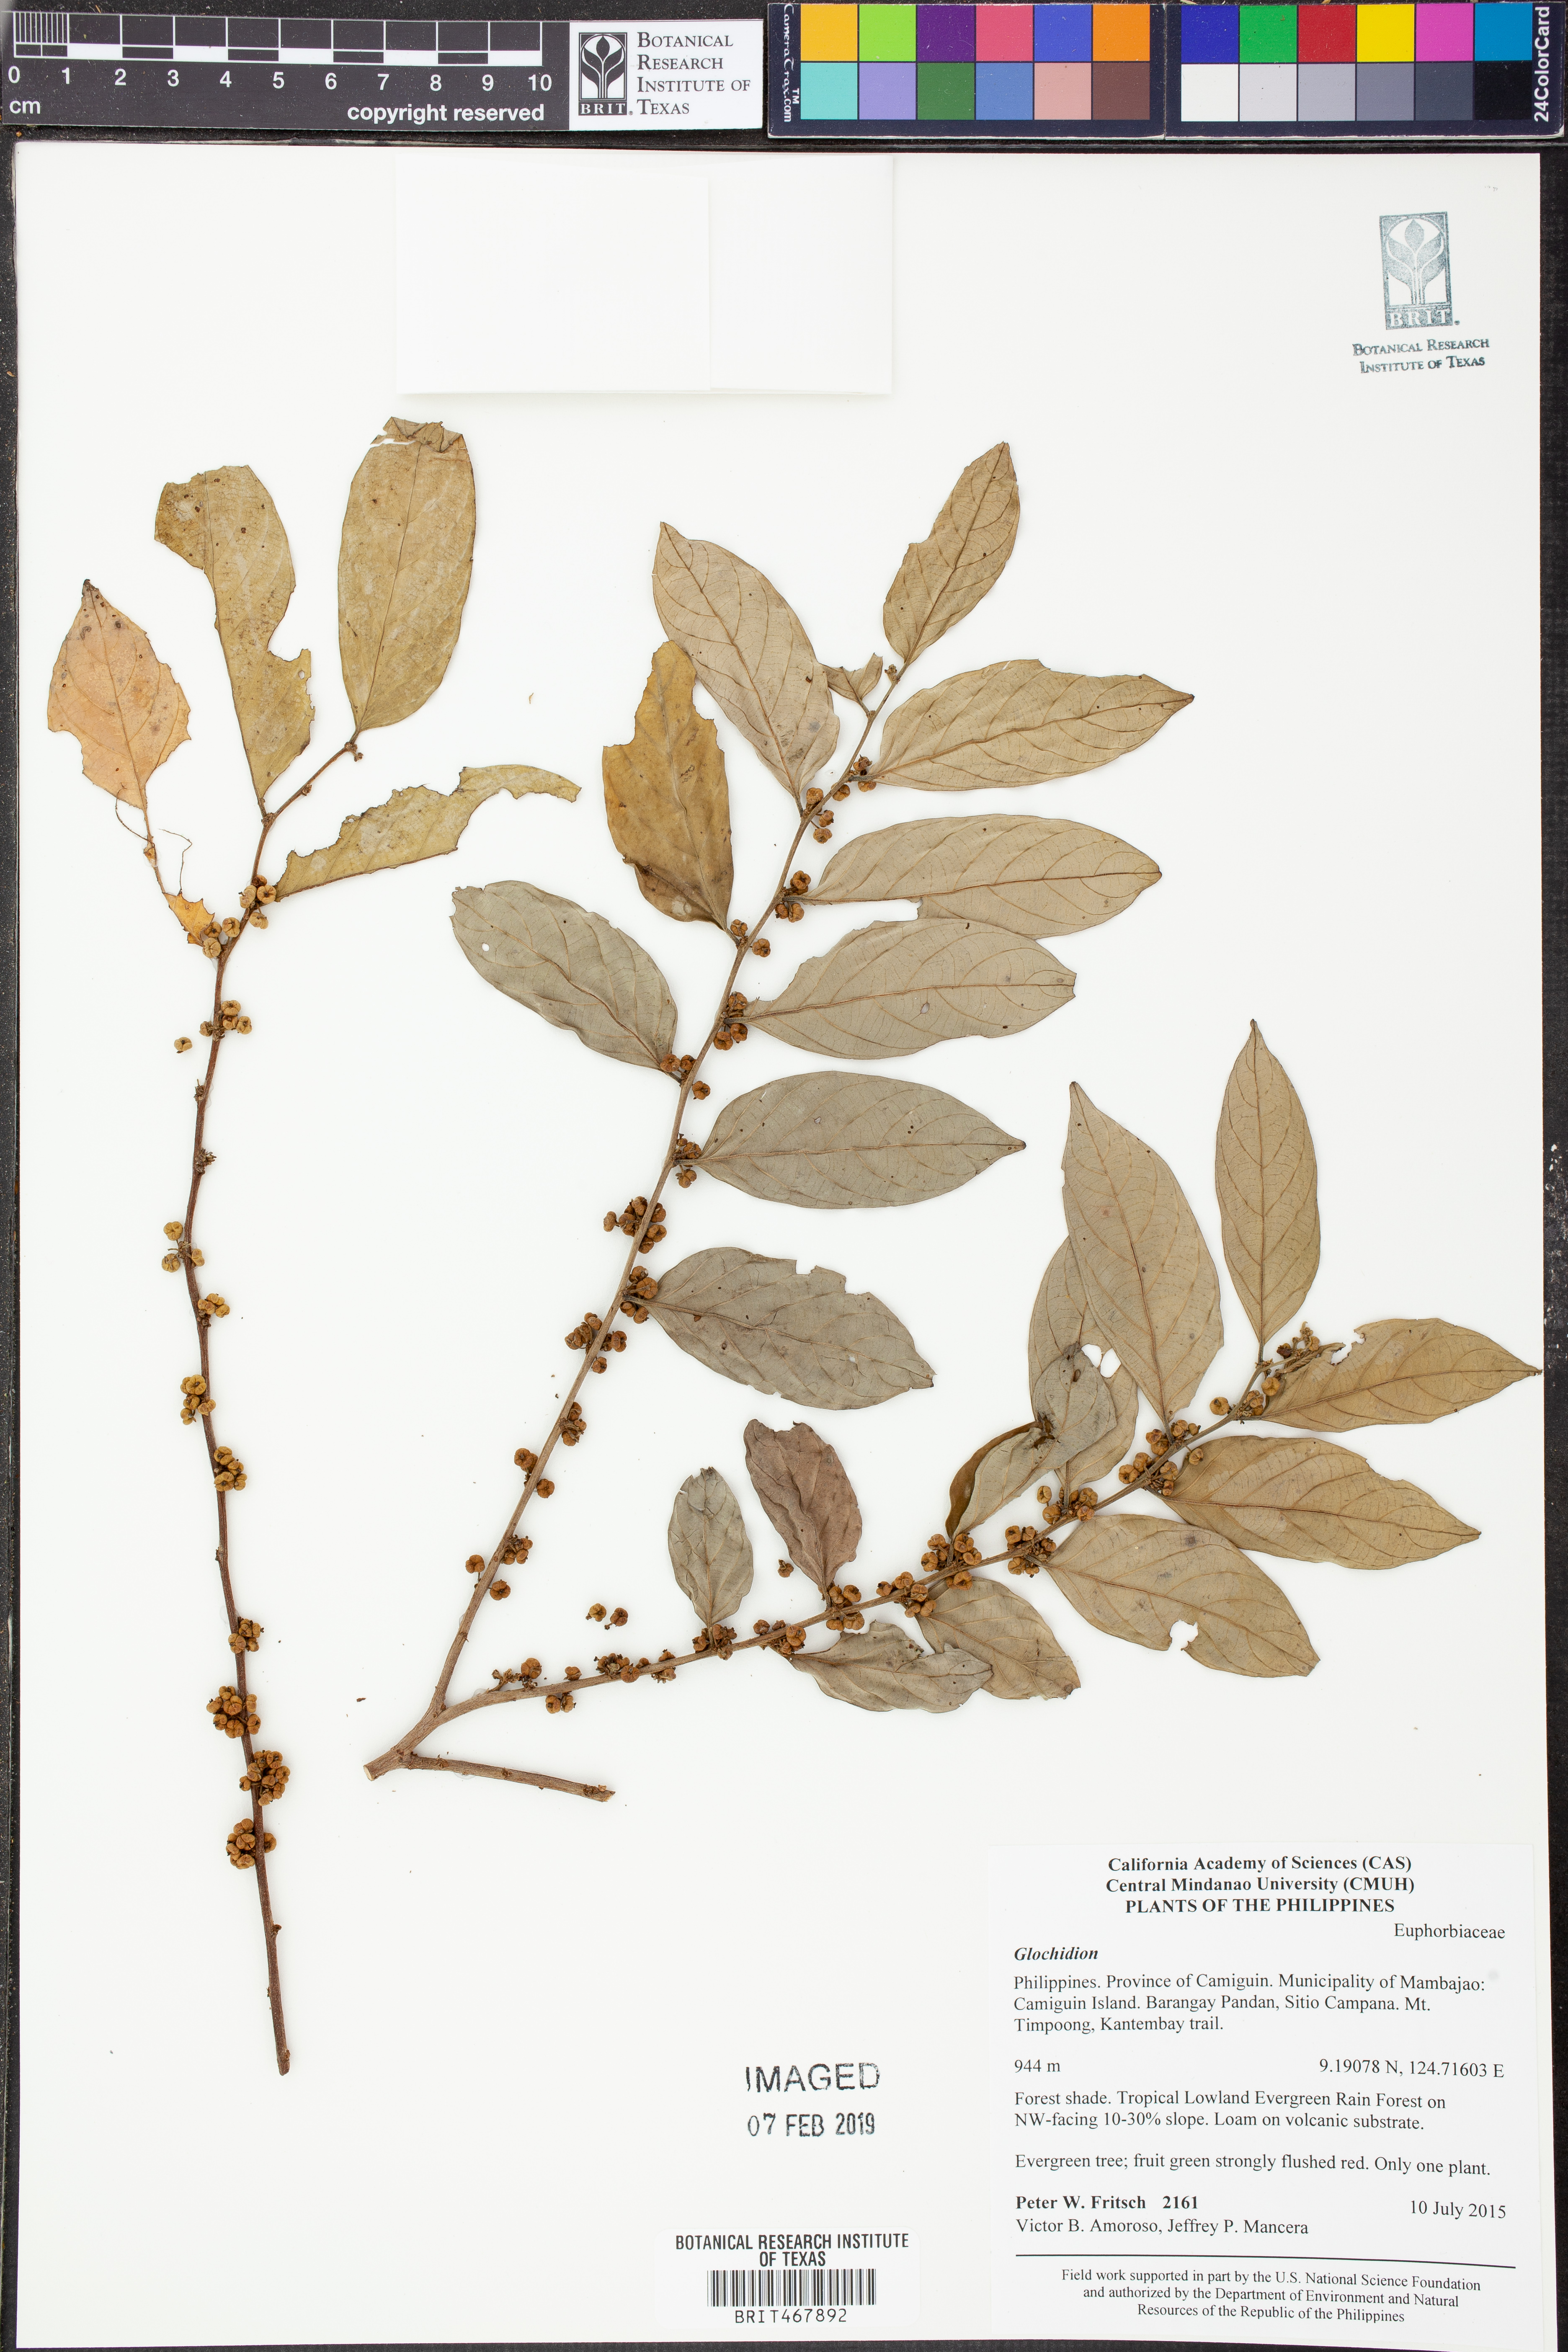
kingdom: Plantae
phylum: Tracheophyta
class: Magnoliopsida
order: Malpighiales
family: Phyllanthaceae
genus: Glochidion
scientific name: Glochidion
